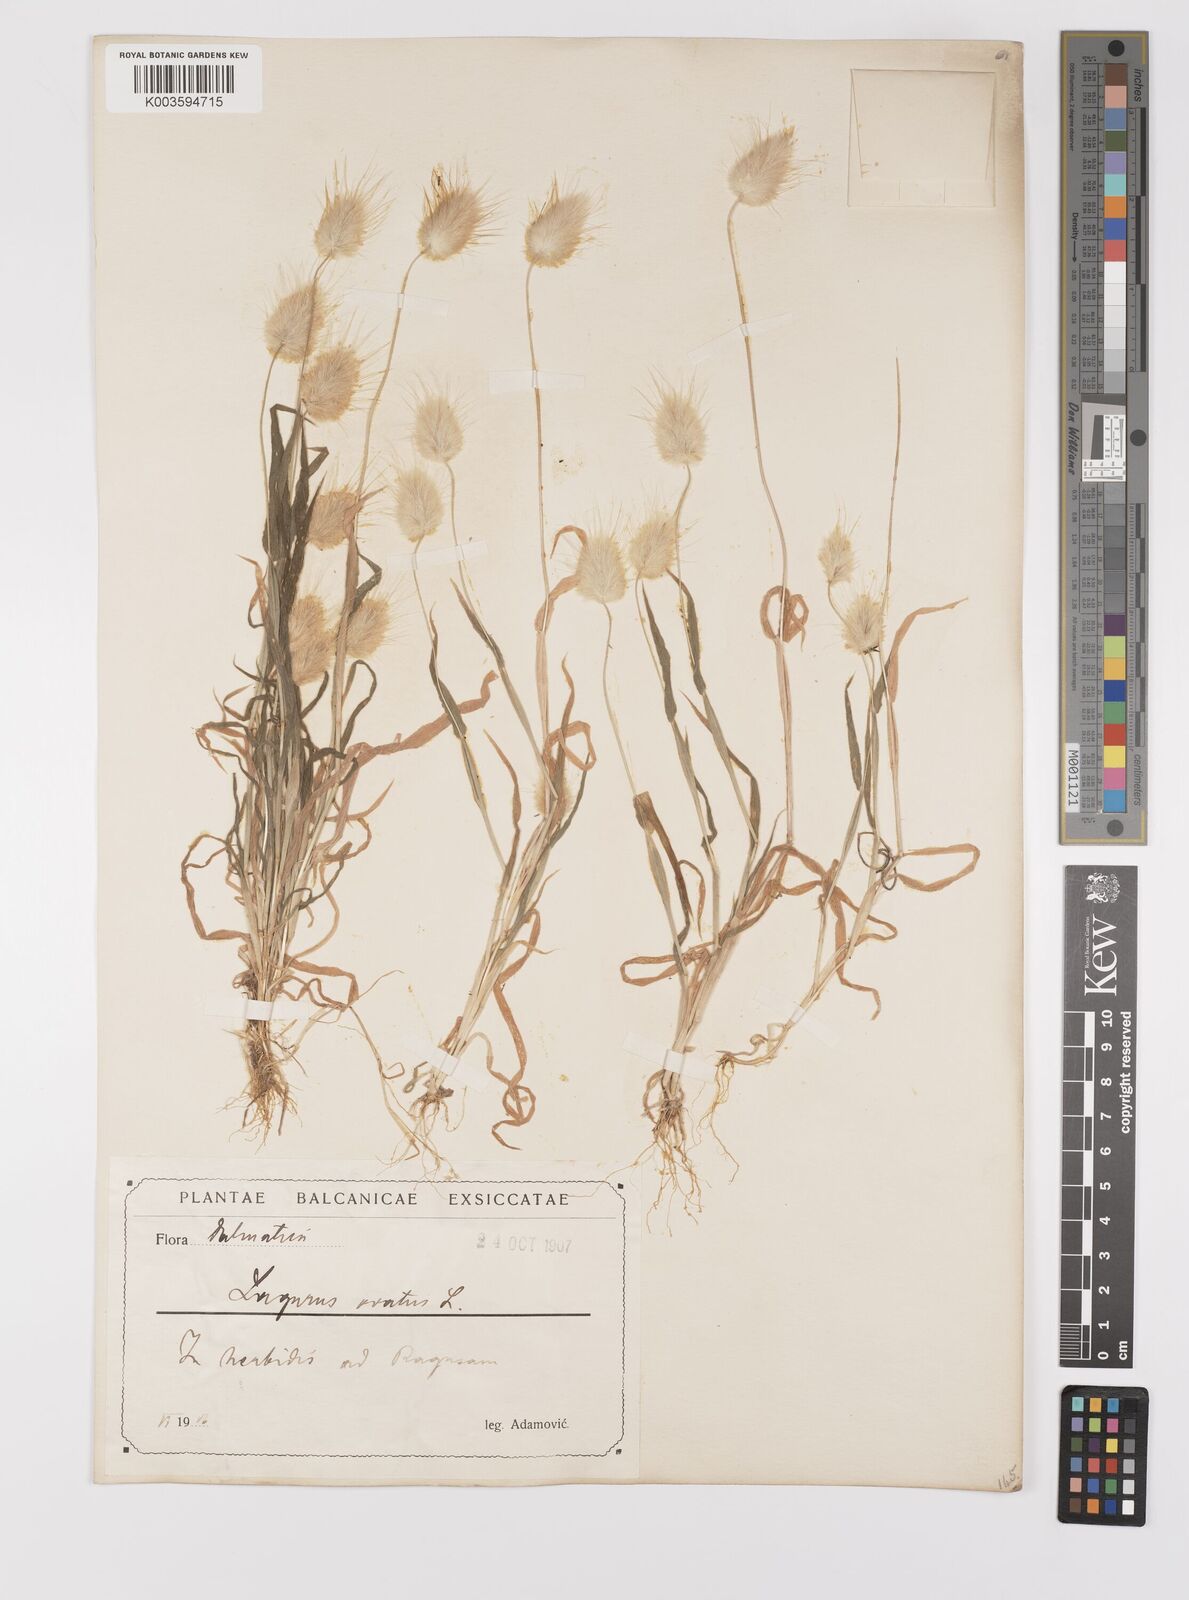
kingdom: Plantae
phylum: Tracheophyta
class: Liliopsida
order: Poales
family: Poaceae
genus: Lagurus
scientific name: Lagurus ovatus
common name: Hare's-tail
